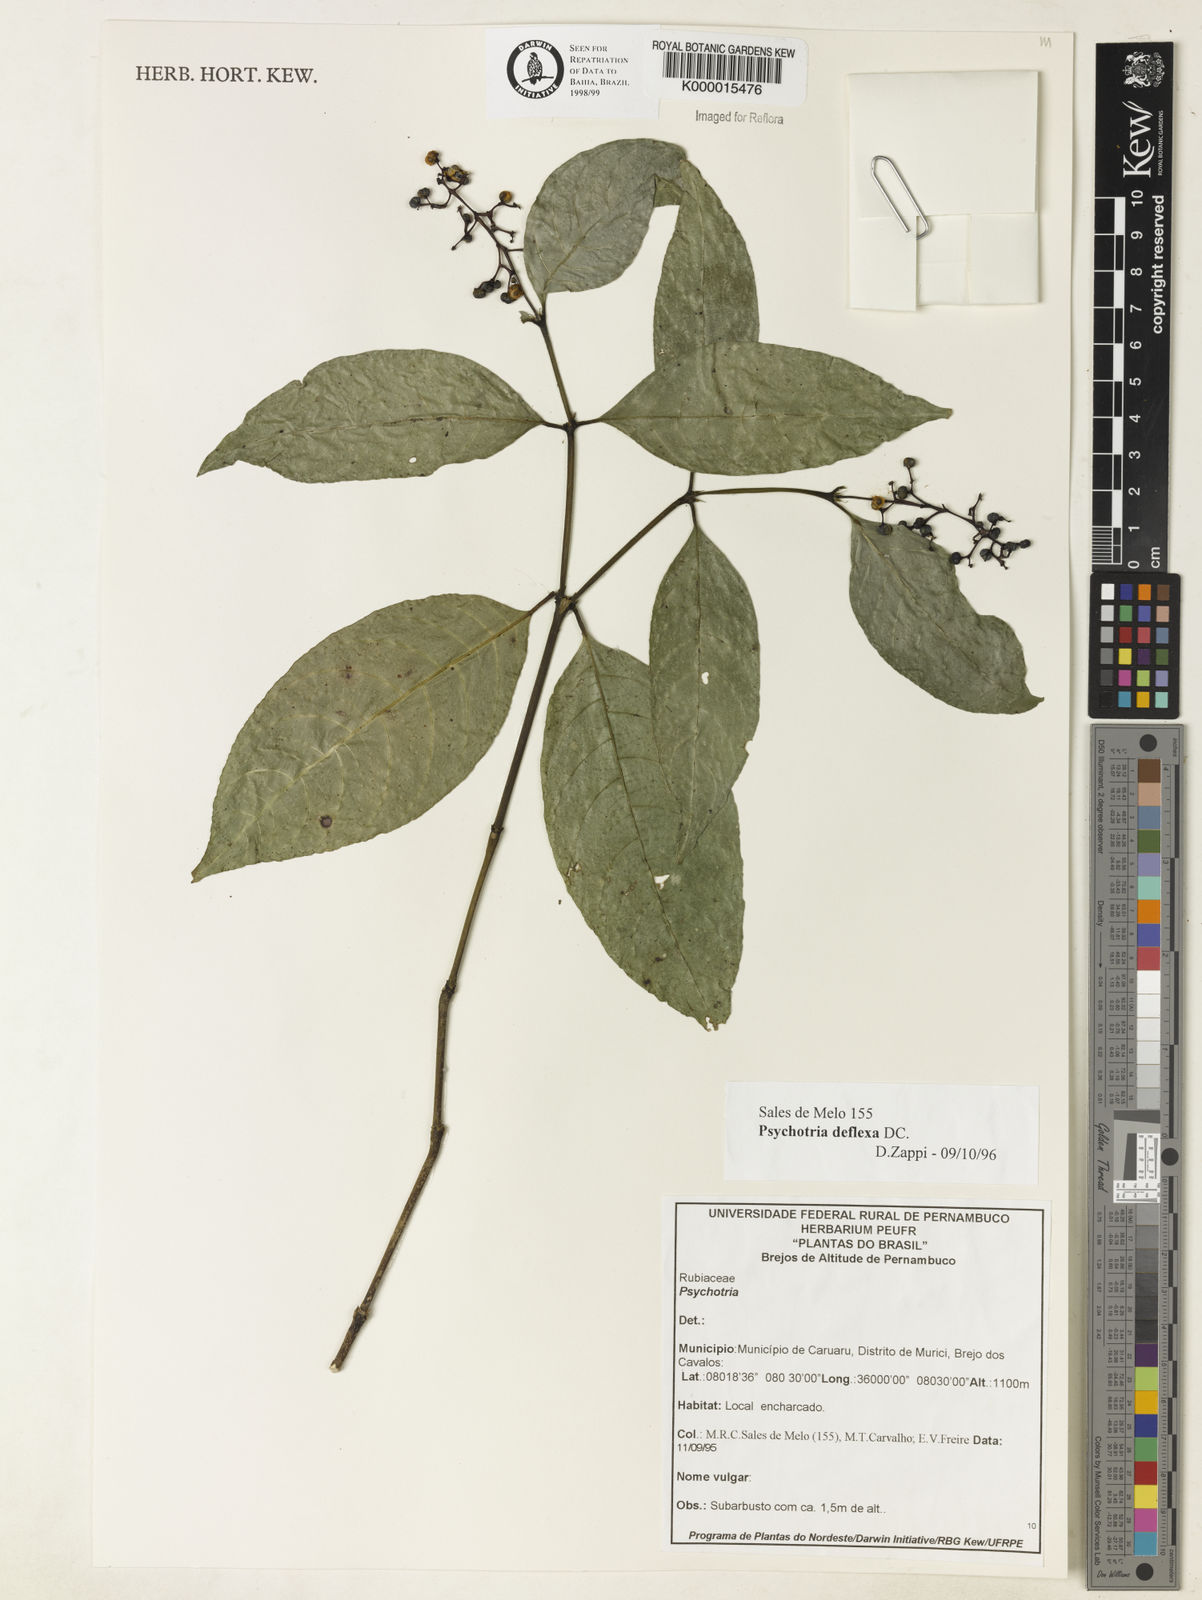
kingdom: Plantae
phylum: Tracheophyta
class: Magnoliopsida
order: Gentianales
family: Rubiaceae
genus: Palicourea
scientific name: Palicourea deflexa
